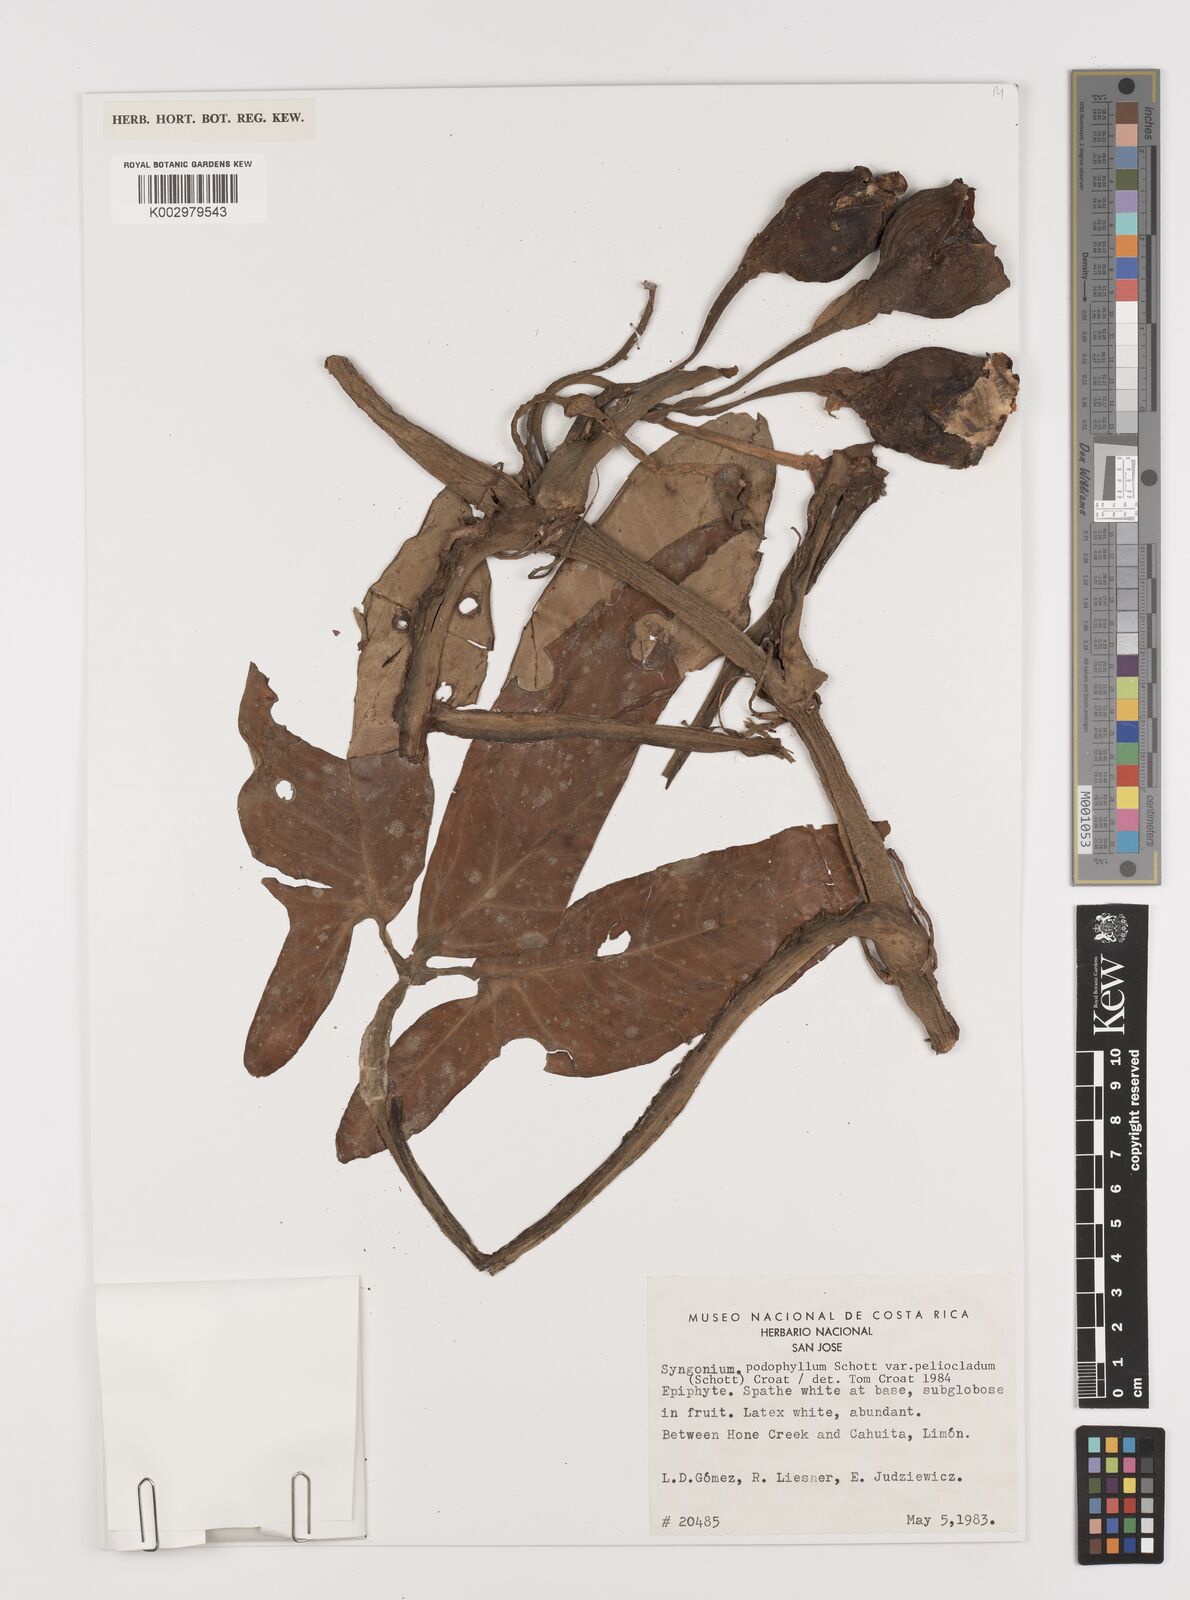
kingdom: Plantae
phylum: Tracheophyta
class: Liliopsida
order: Alismatales
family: Araceae
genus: Syngonium
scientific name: Syngonium podophyllum
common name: American evergreen
